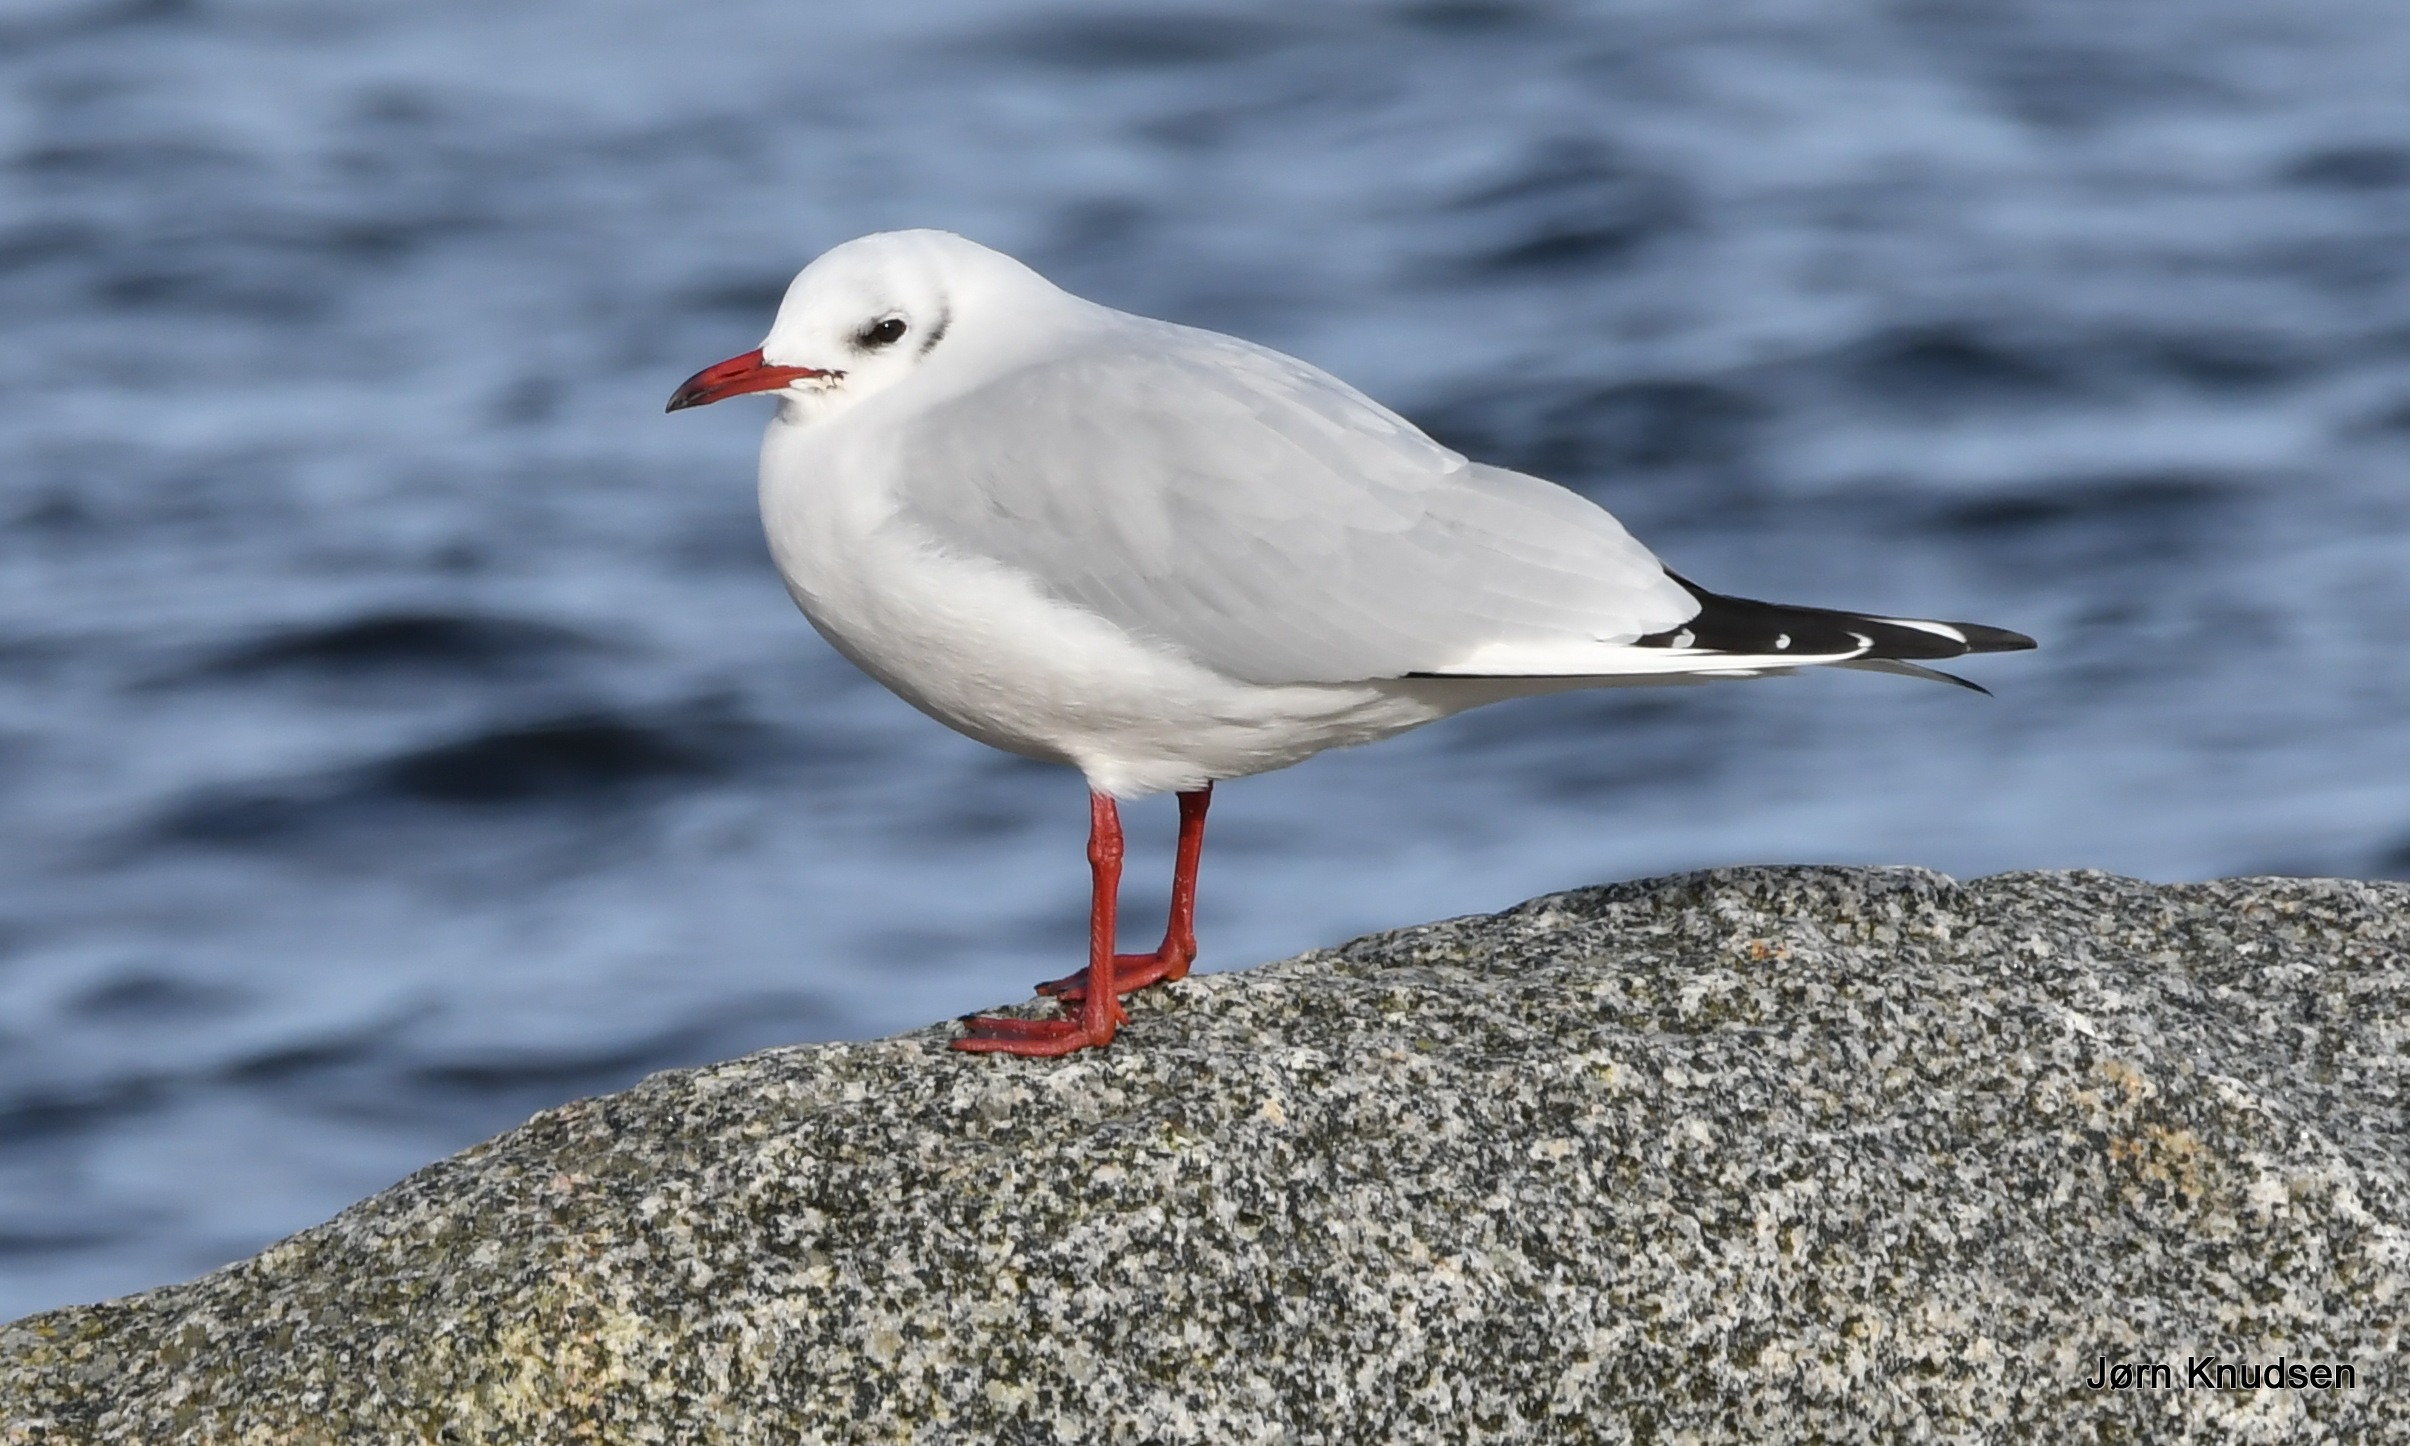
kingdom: Animalia
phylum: Chordata
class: Aves
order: Charadriiformes
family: Laridae
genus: Chroicocephalus
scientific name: Chroicocephalus ridibundus
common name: Hættemåge
